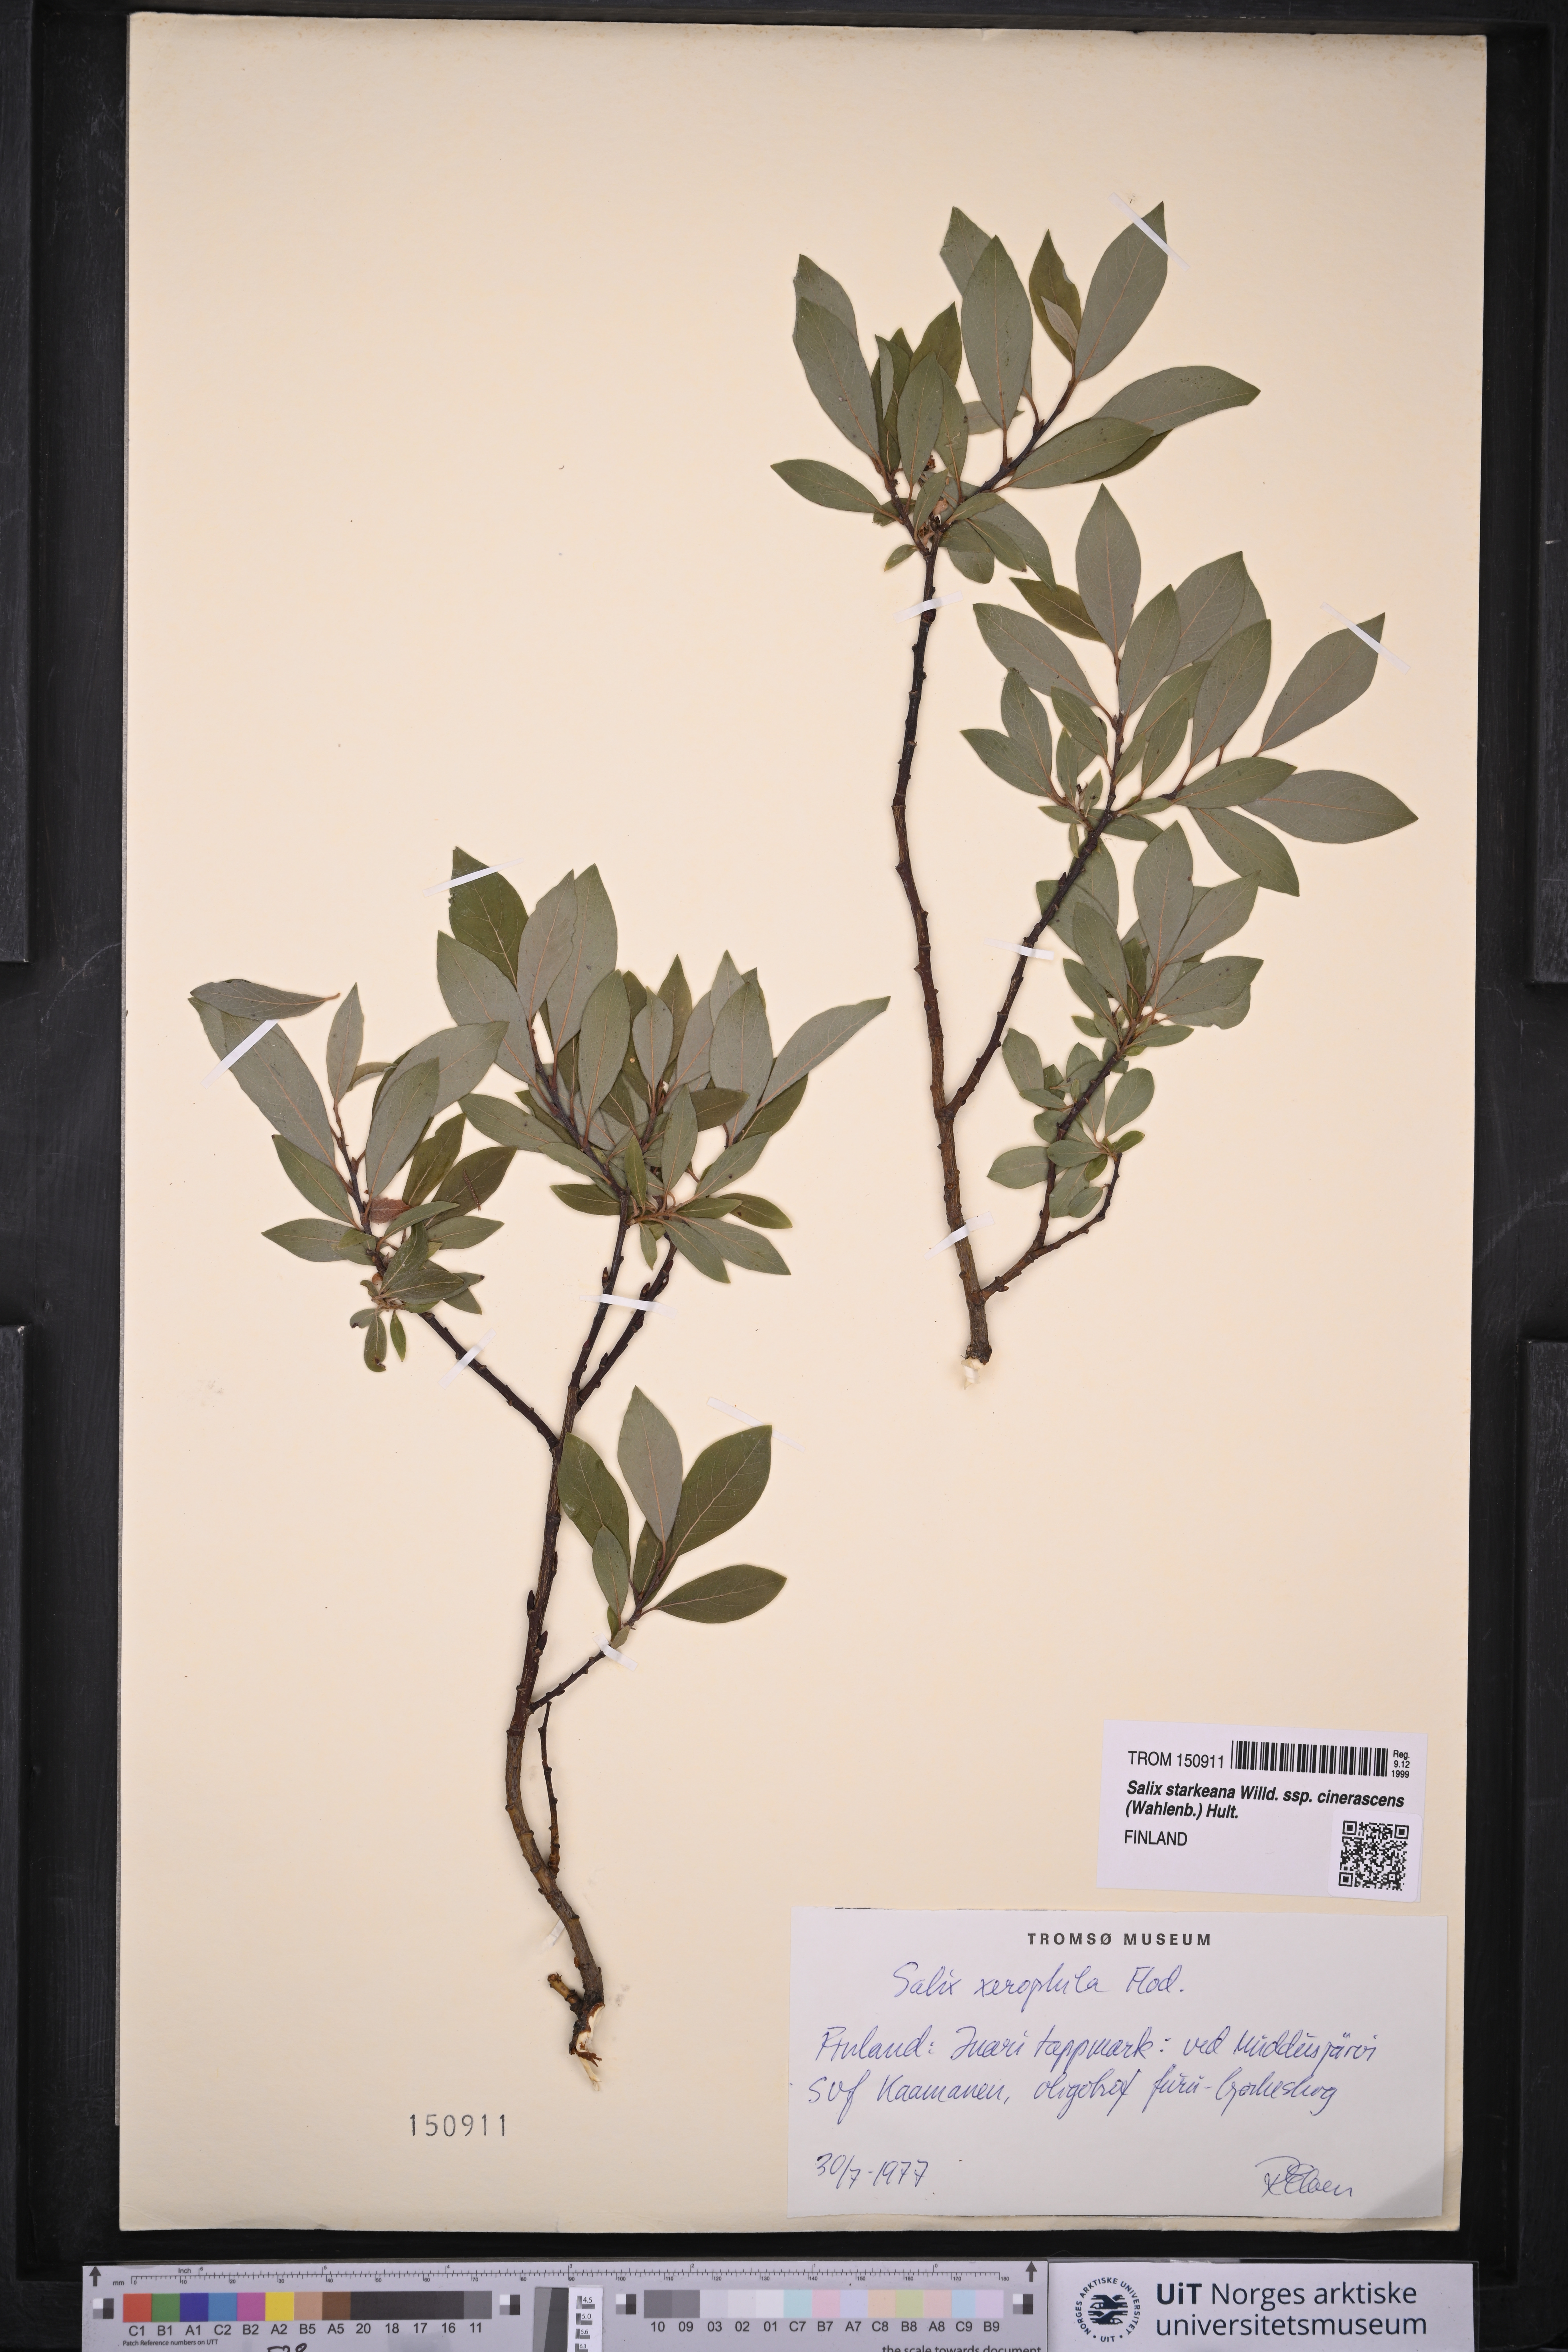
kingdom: Plantae
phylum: Tracheophyta
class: Magnoliopsida
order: Malpighiales
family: Salicaceae
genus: Salix
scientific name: Salix bebbiana
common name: Bebb's willow
